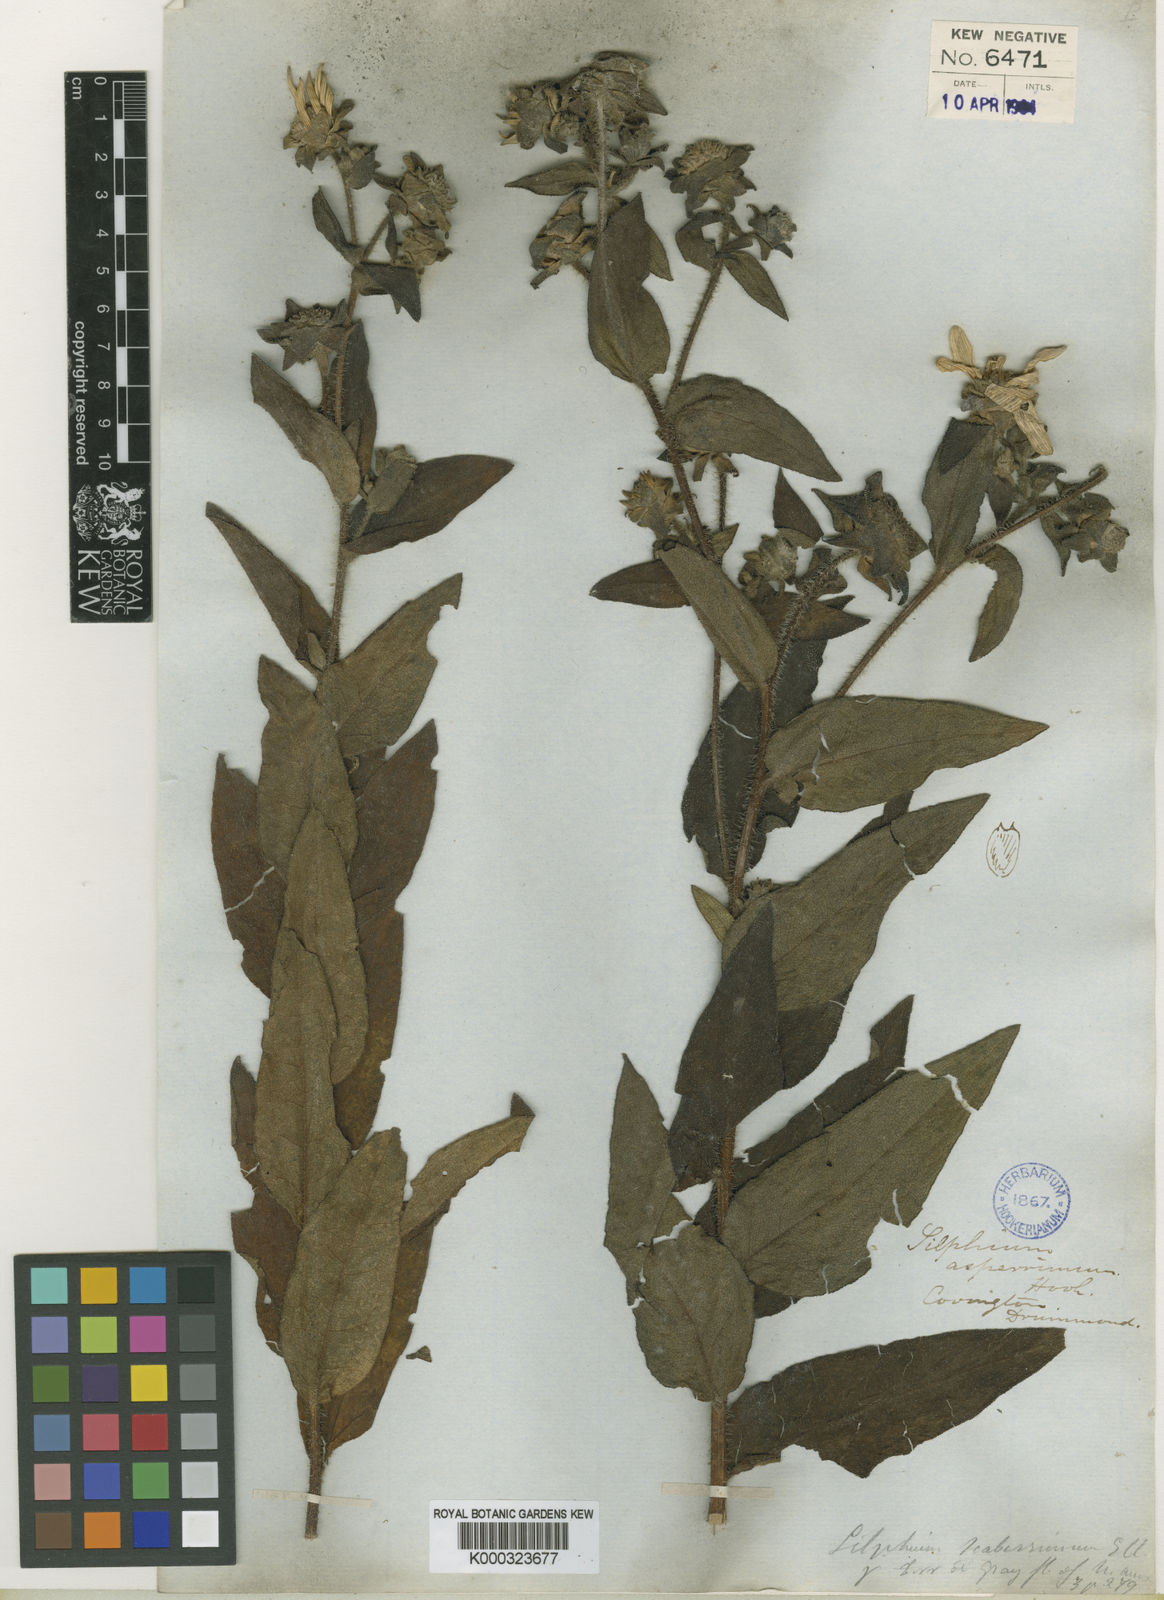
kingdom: Plantae
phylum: Tracheophyta
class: Magnoliopsida
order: Asterales
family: Asteraceae
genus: Silphium
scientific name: Silphium asperrimum
